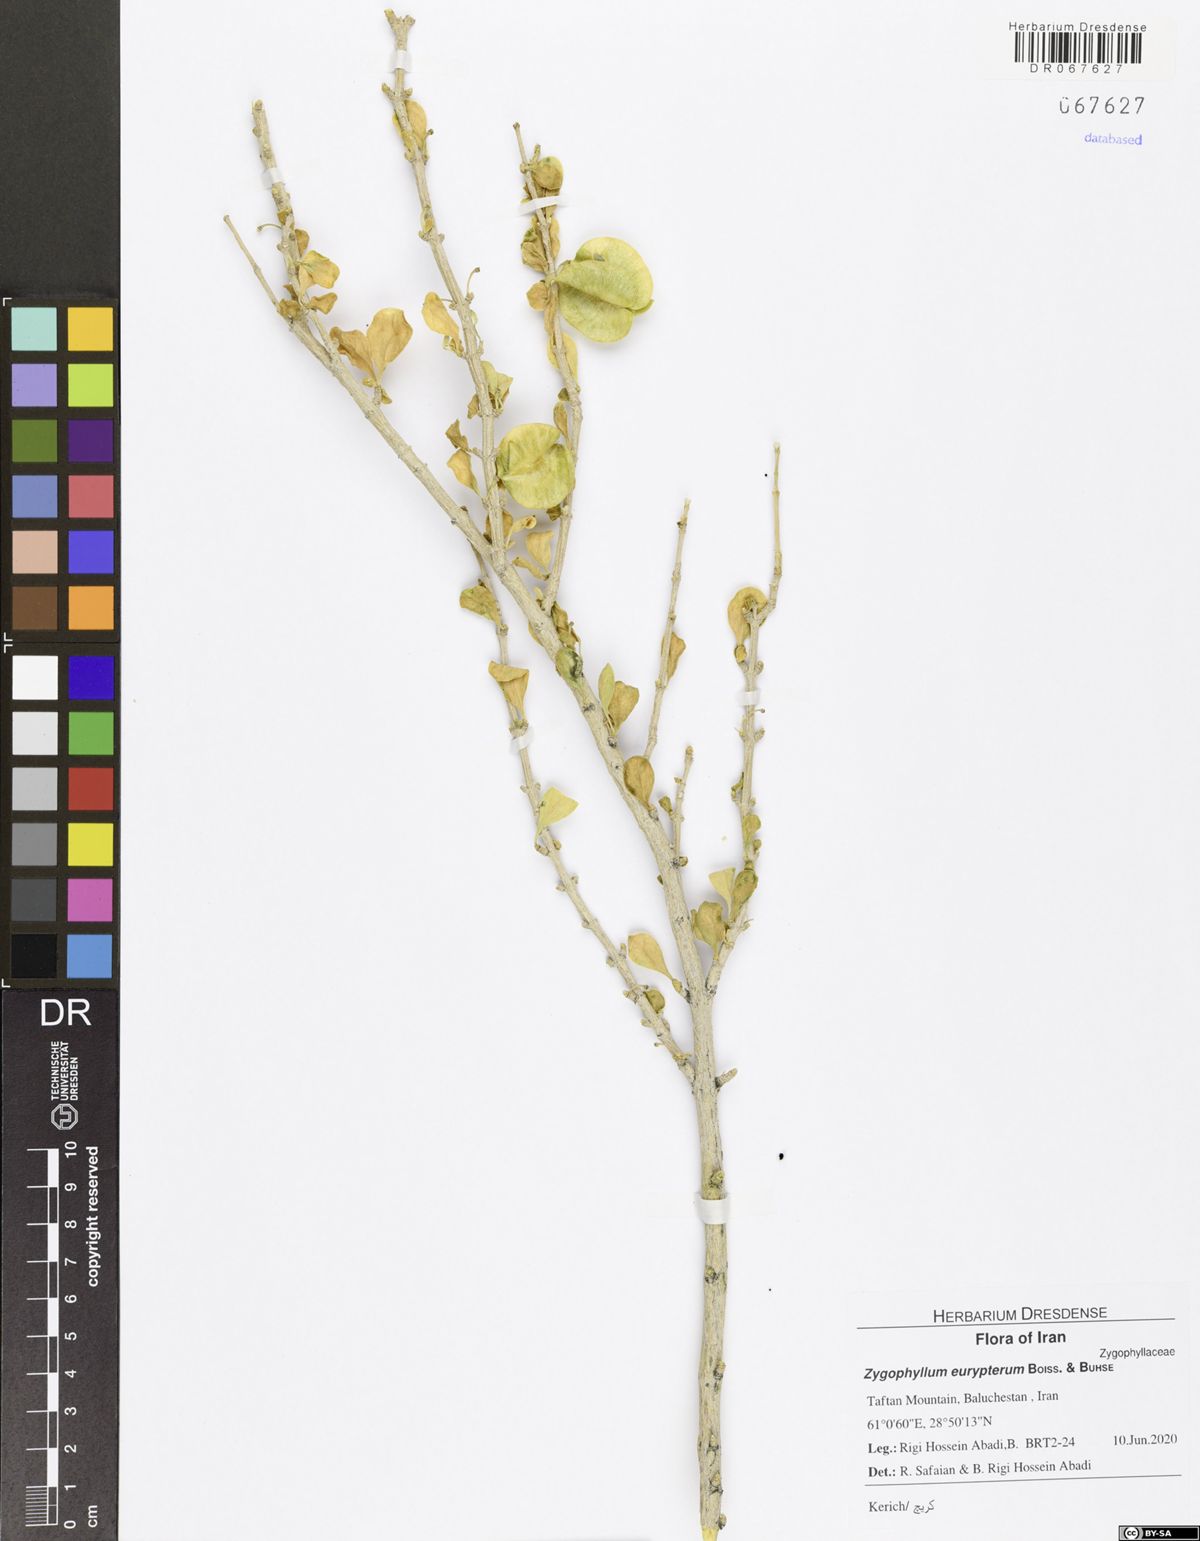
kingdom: Plantae
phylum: Tracheophyta
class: Magnoliopsida
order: Zygophyllales
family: Zygophyllaceae
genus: Zygophyllum
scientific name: Zygophyllum atriplicoides
